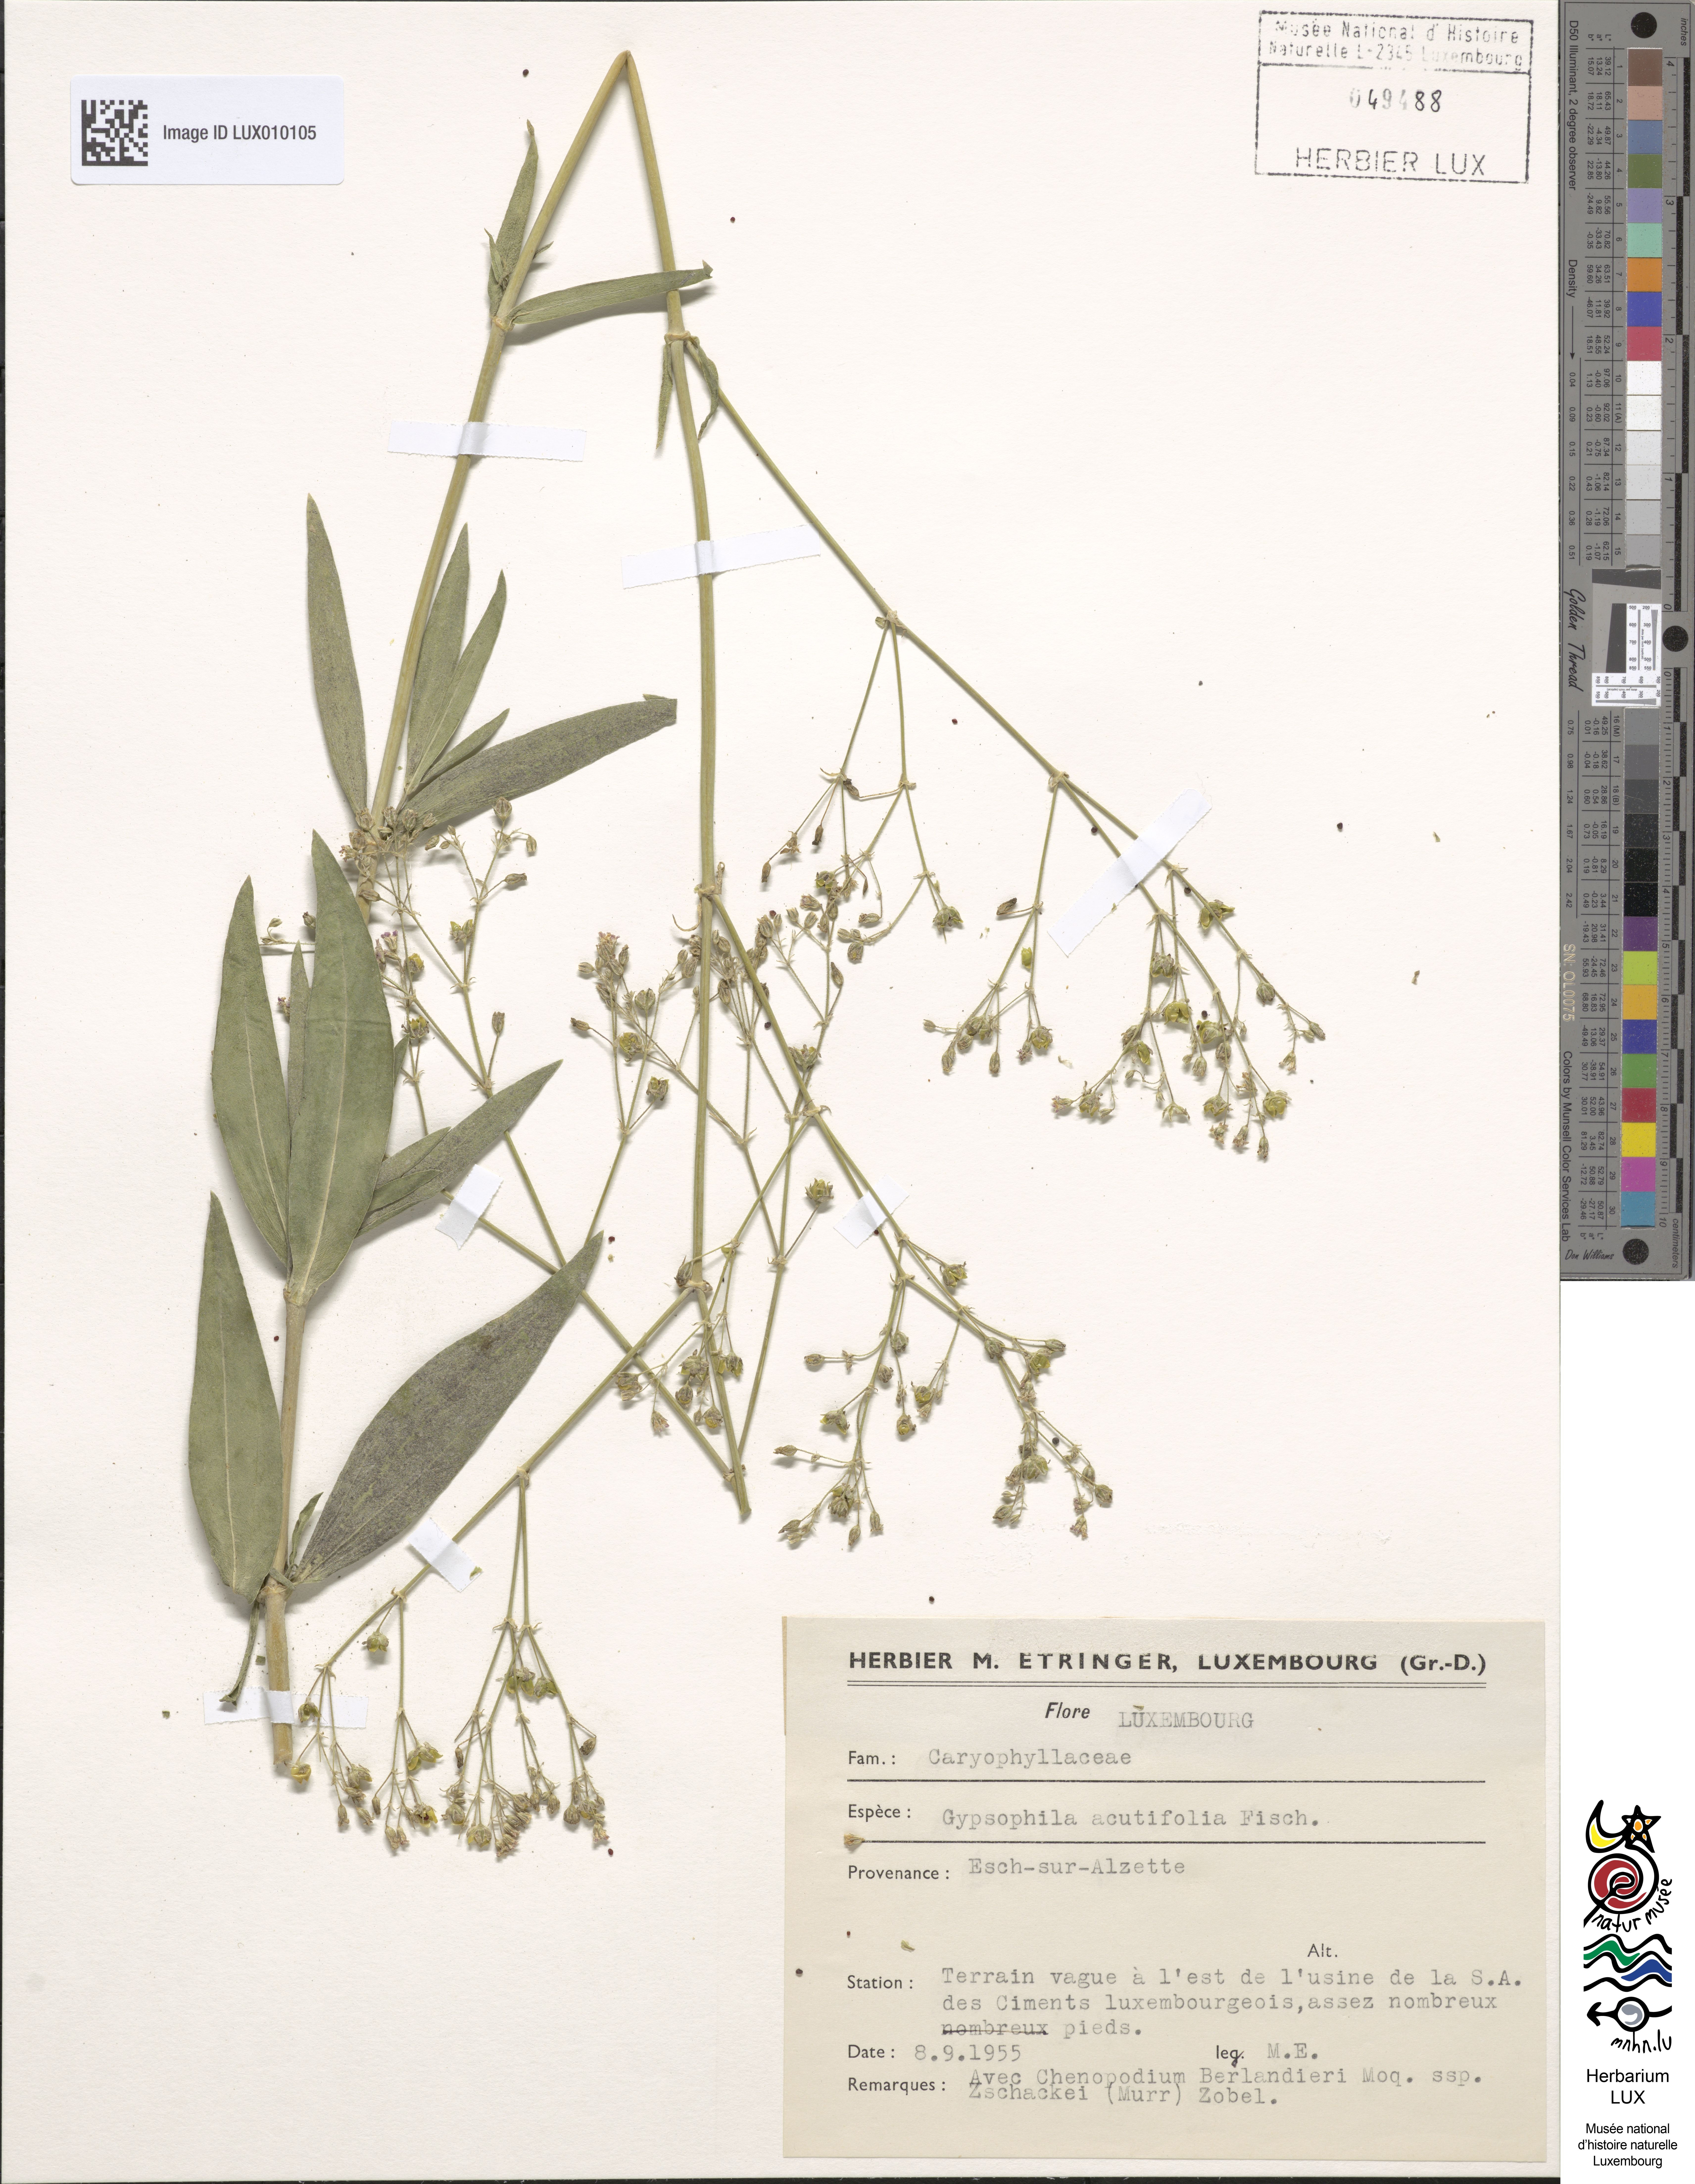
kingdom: Plantae
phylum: Tracheophyta
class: Magnoliopsida
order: Caryophyllales
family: Caryophyllaceae
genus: Gypsophila
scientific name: Gypsophila acutifolia
